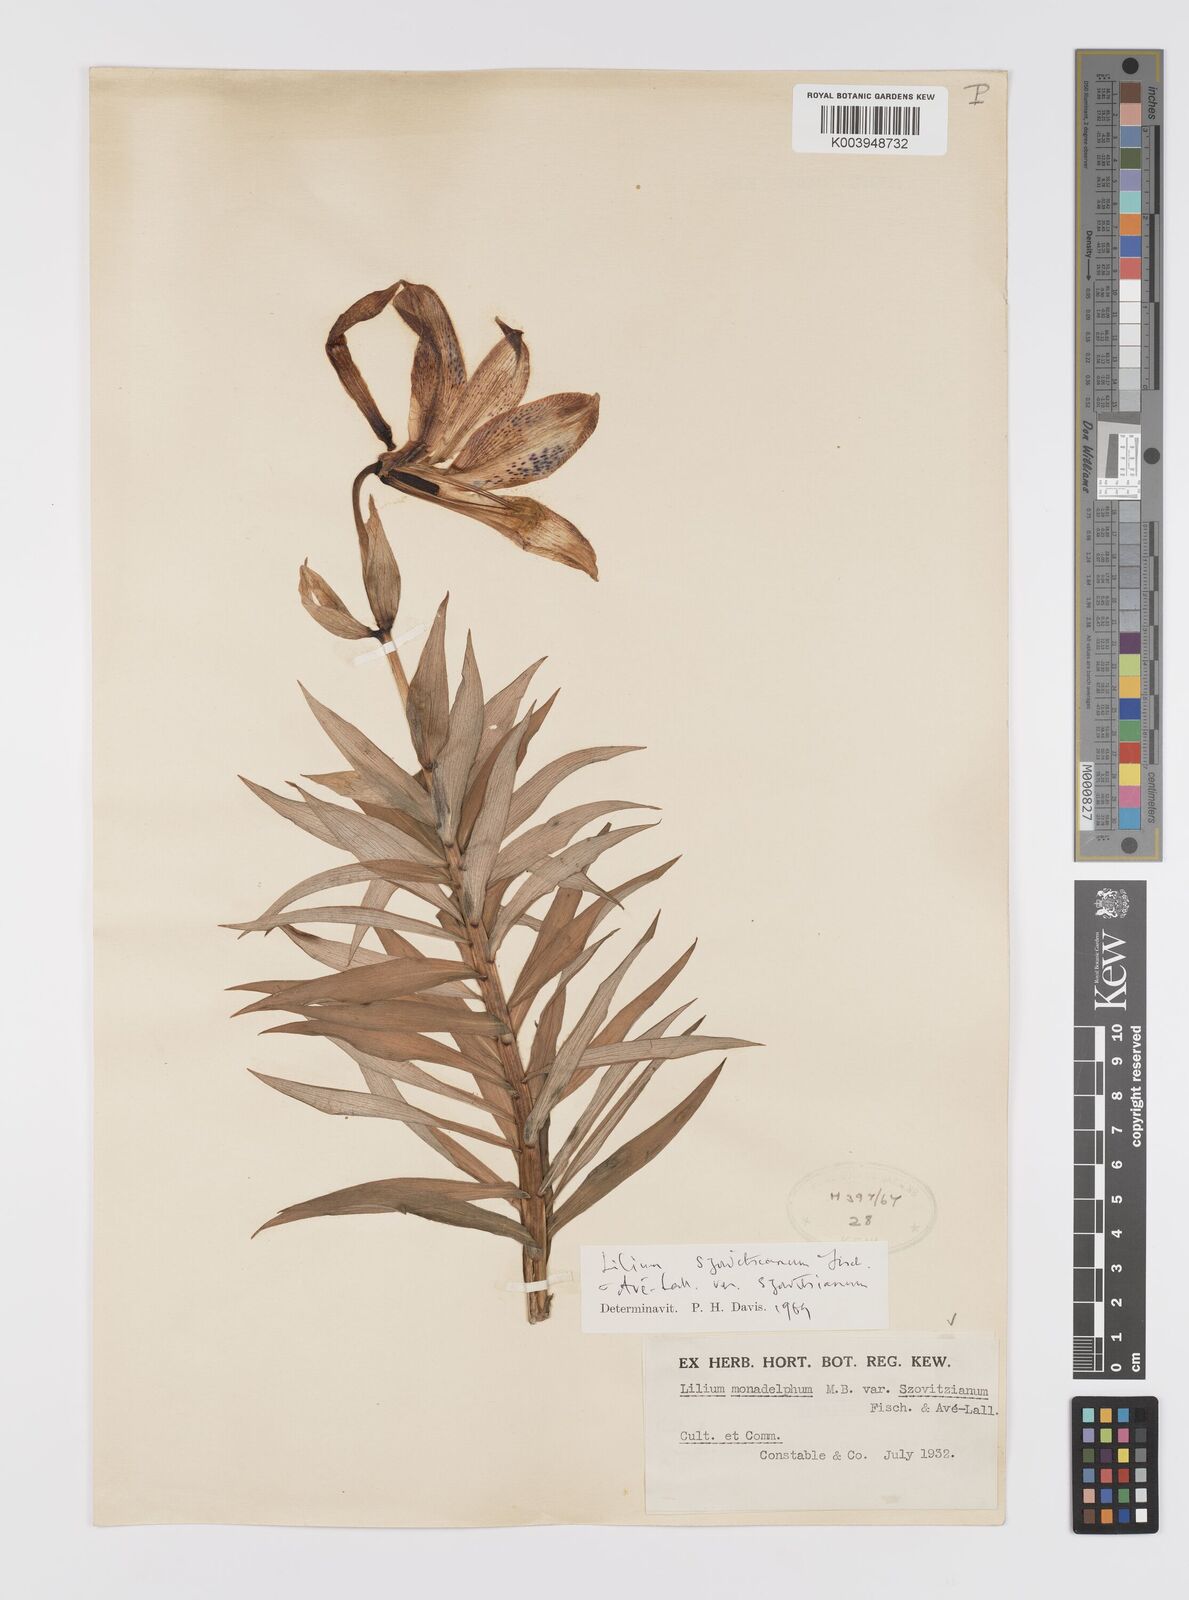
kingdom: Plantae
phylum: Tracheophyta
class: Liliopsida
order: Liliales
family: Liliaceae
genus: Lilium
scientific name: Lilium szovitsianum
